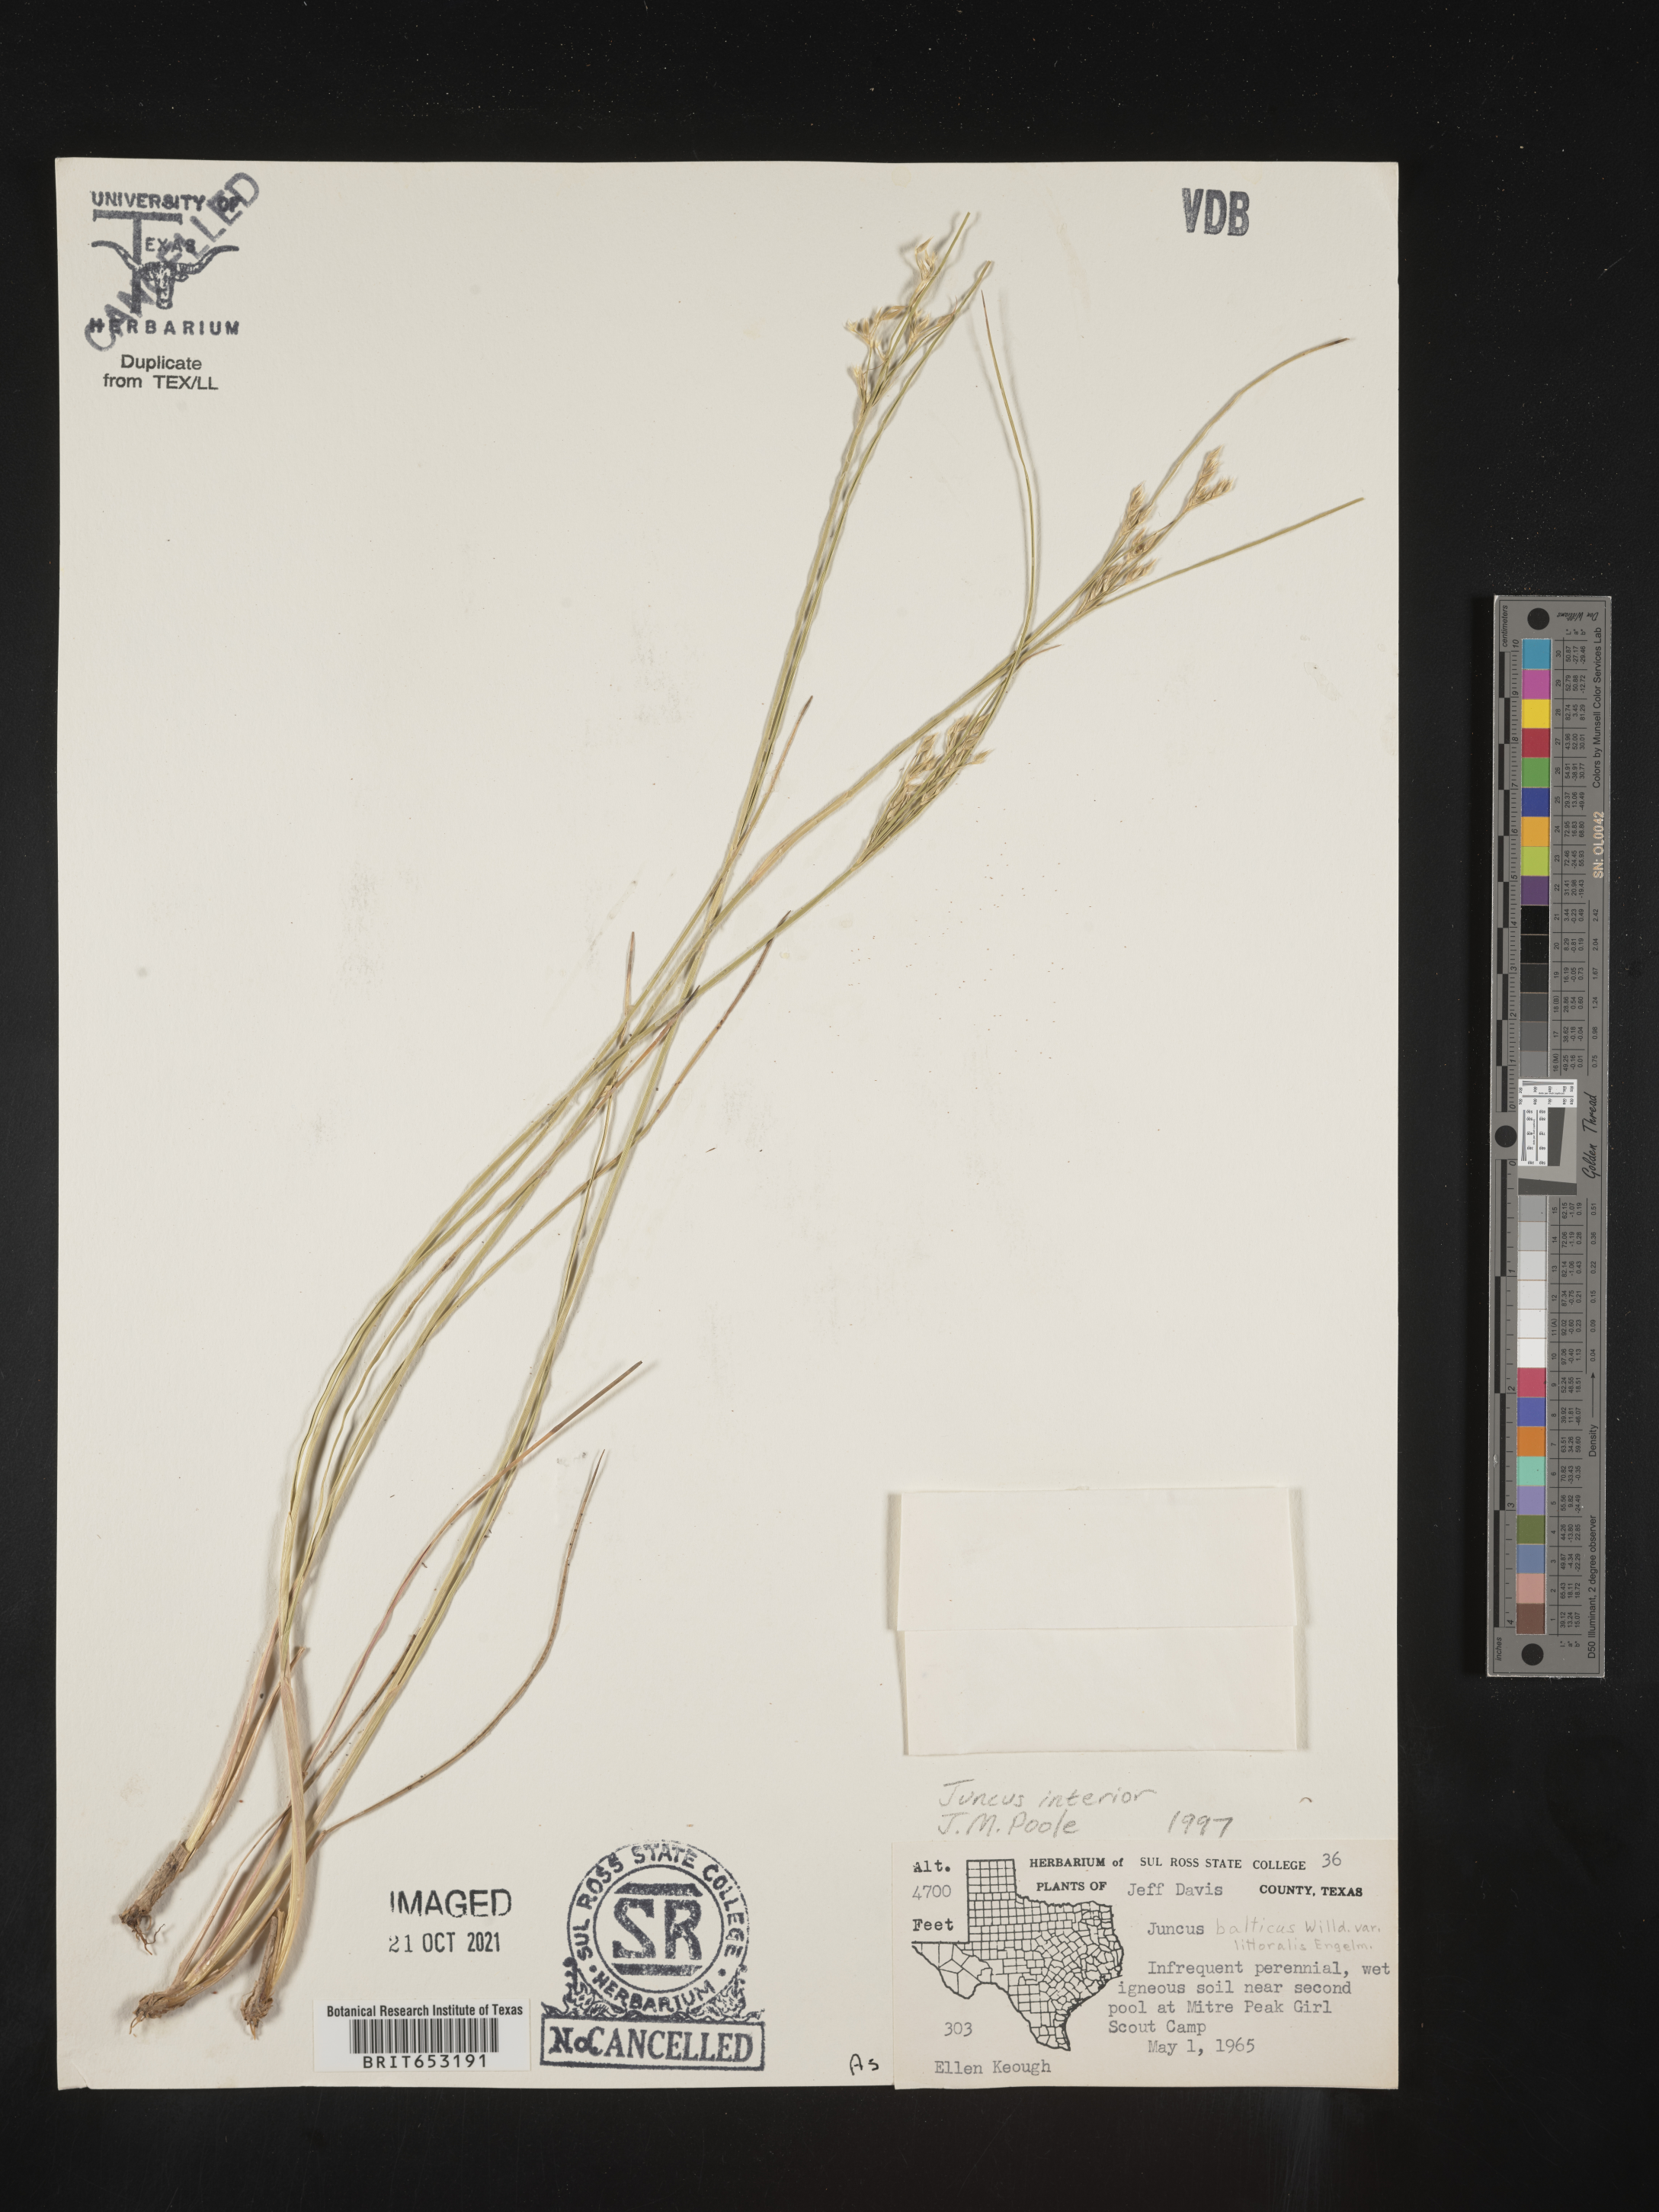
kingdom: Plantae
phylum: Tracheophyta
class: Liliopsida
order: Poales
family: Juncaceae
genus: Juncus
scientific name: Juncus interior
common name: Interior rush
